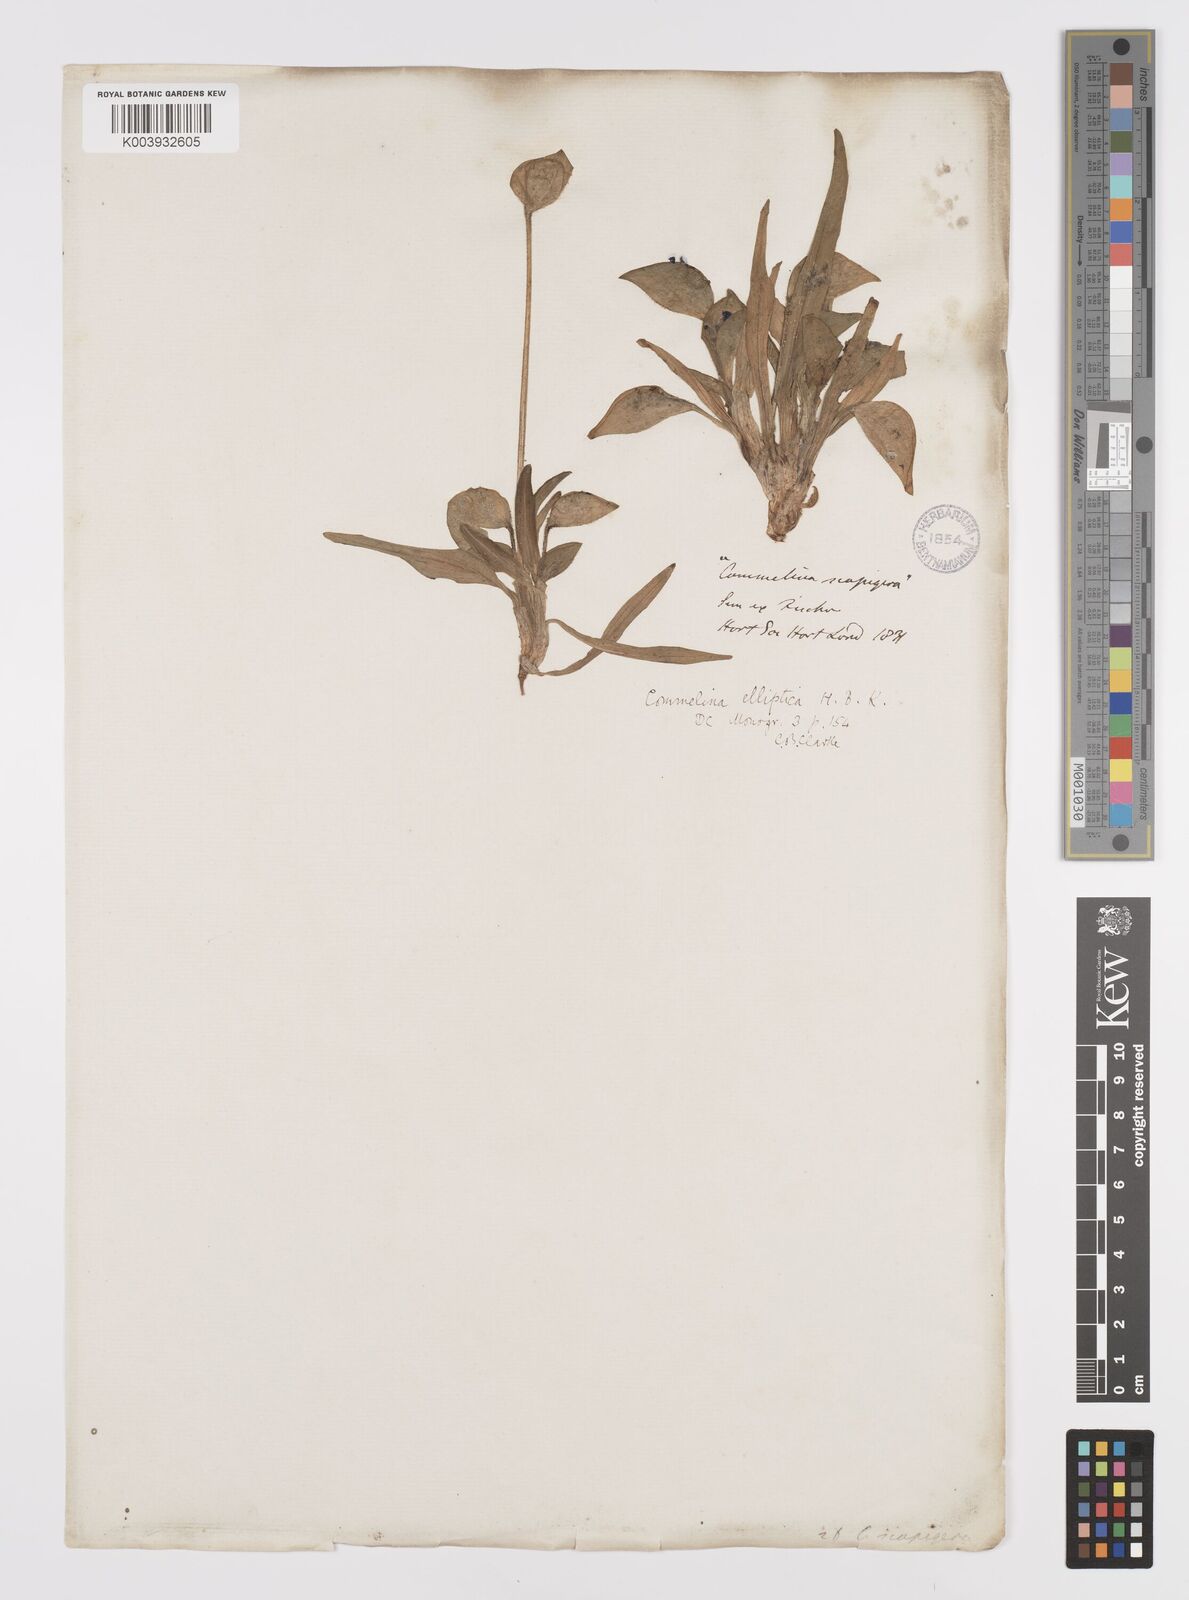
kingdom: Plantae
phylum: Tracheophyta
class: Liliopsida
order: Commelinales
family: Commelinaceae
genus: Commelina
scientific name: Commelina elliptica
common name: Peruvian spiderwort
